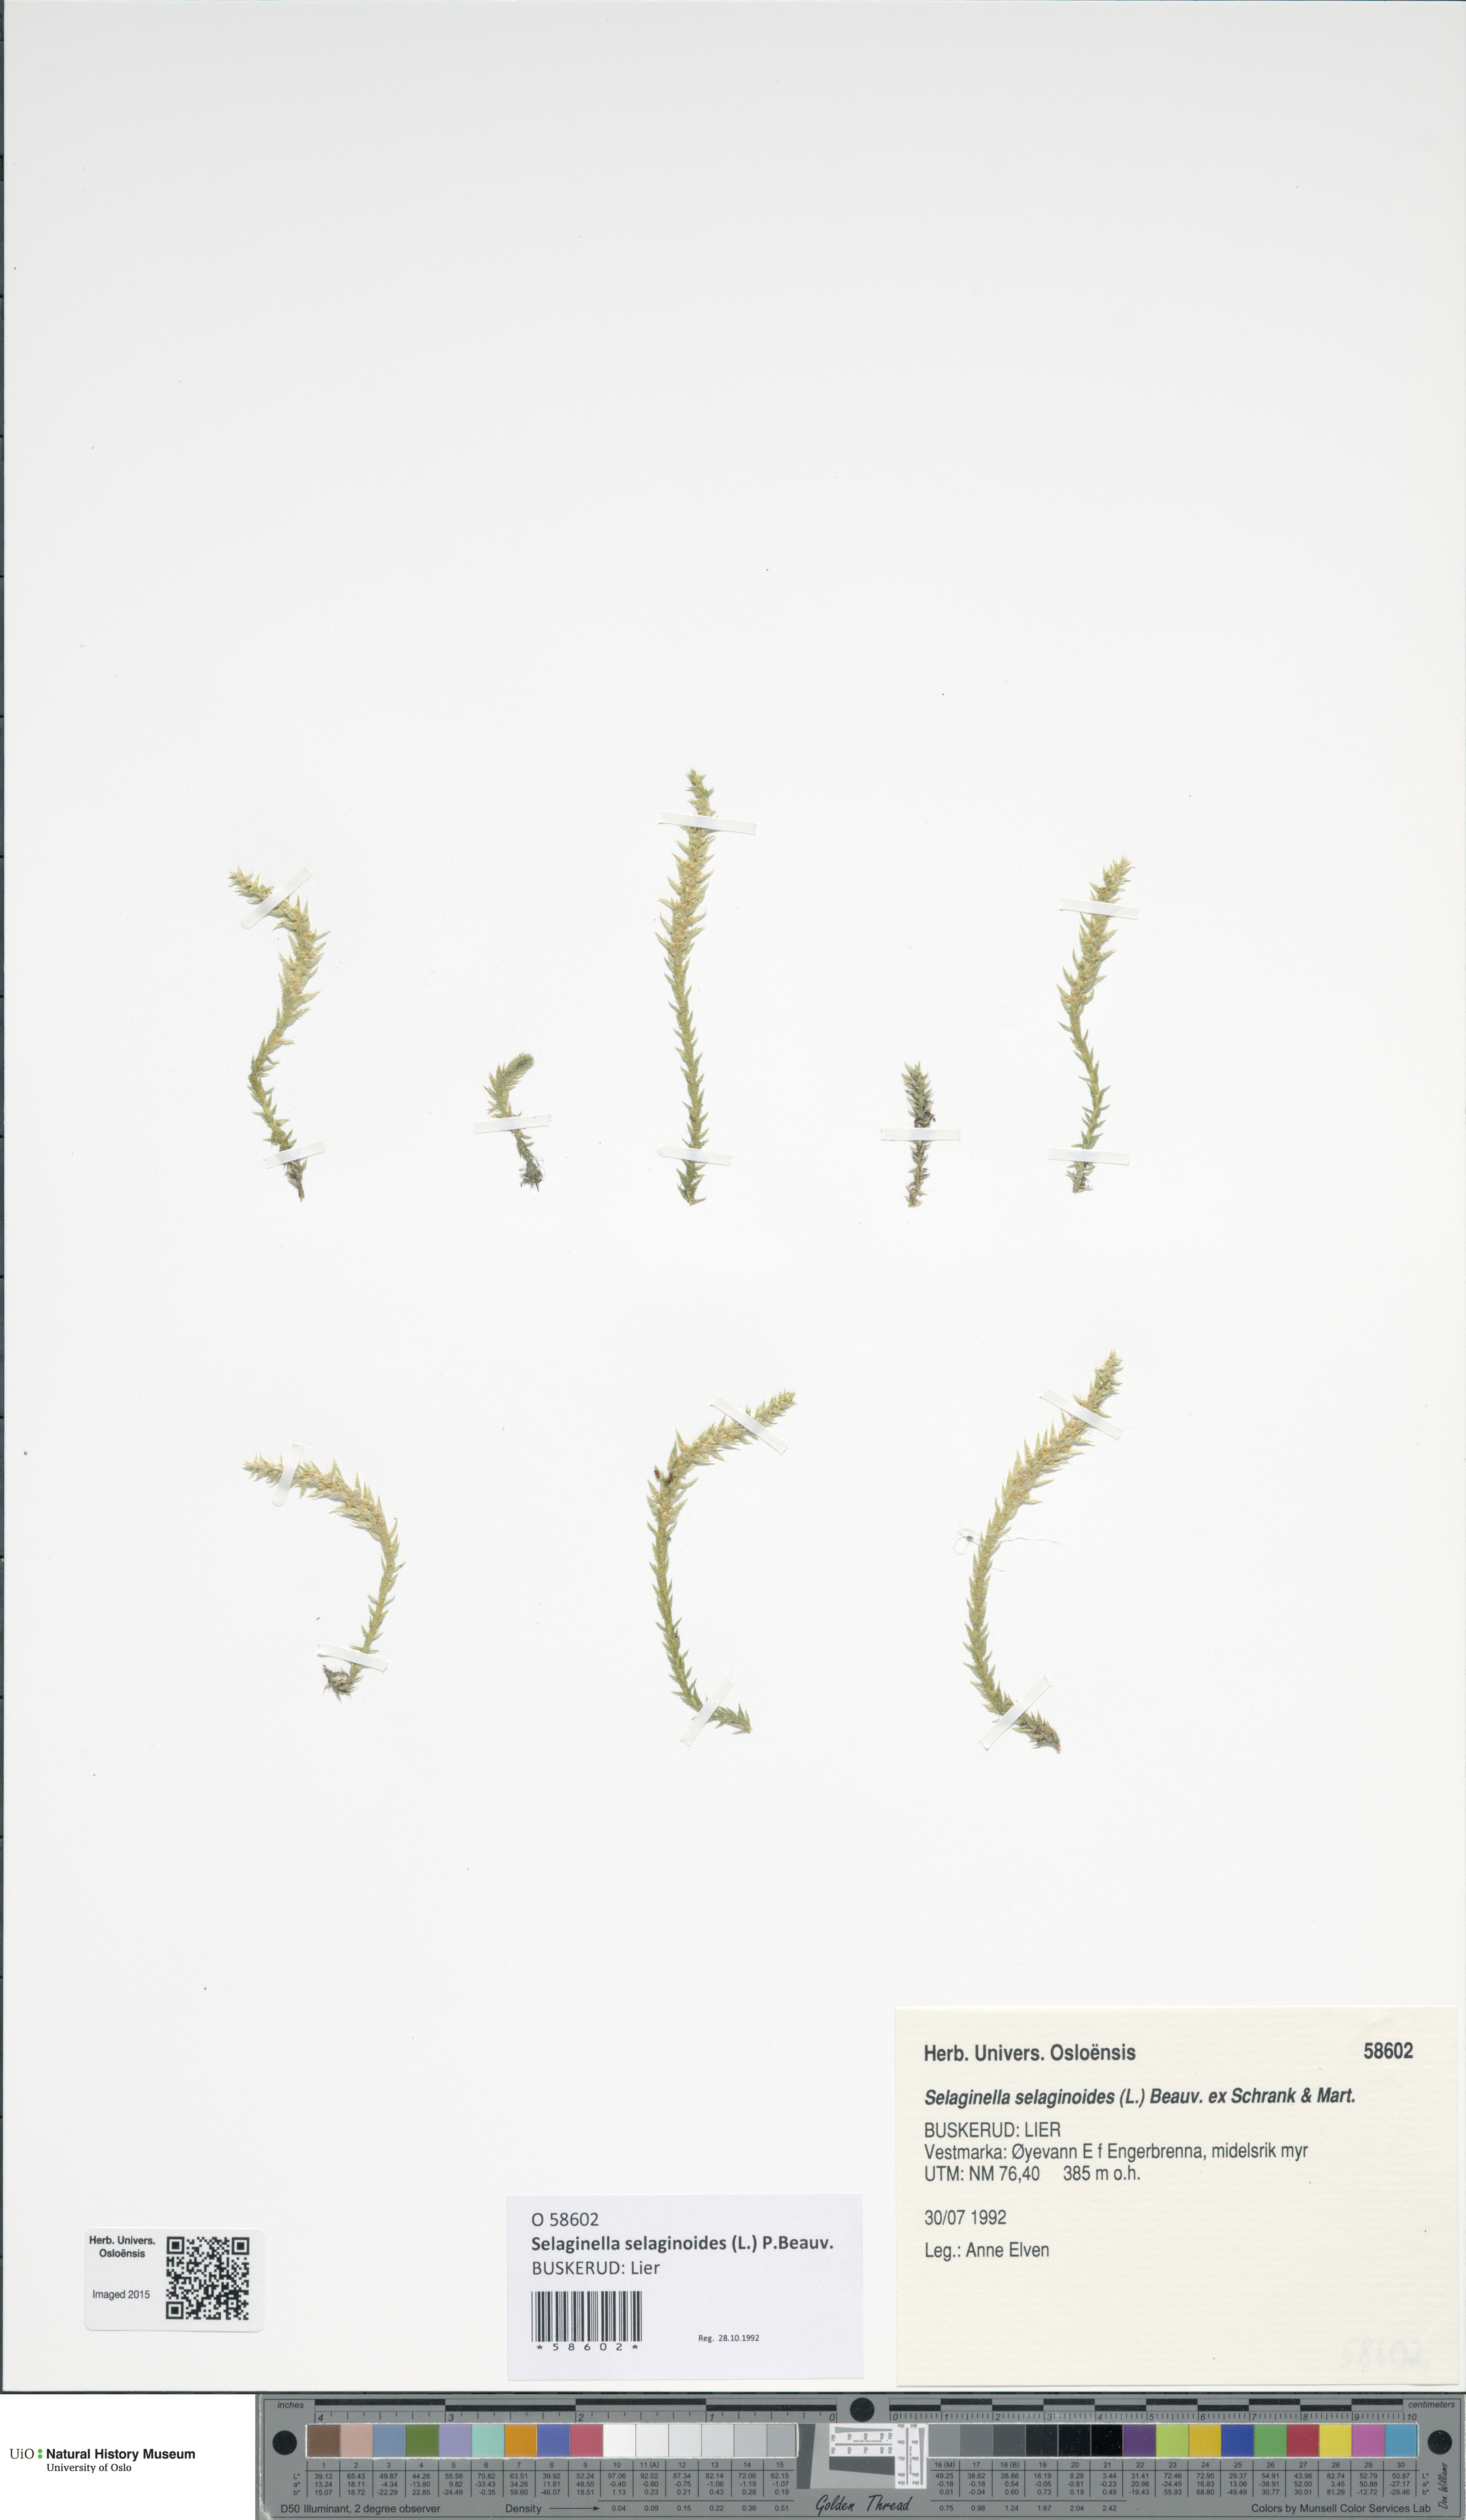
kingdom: Plantae
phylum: Tracheophyta
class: Lycopodiopsida
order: Selaginellales
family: Selaginellaceae
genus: Selaginella
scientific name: Selaginella selaginoides
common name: Prickly mountain-moss
